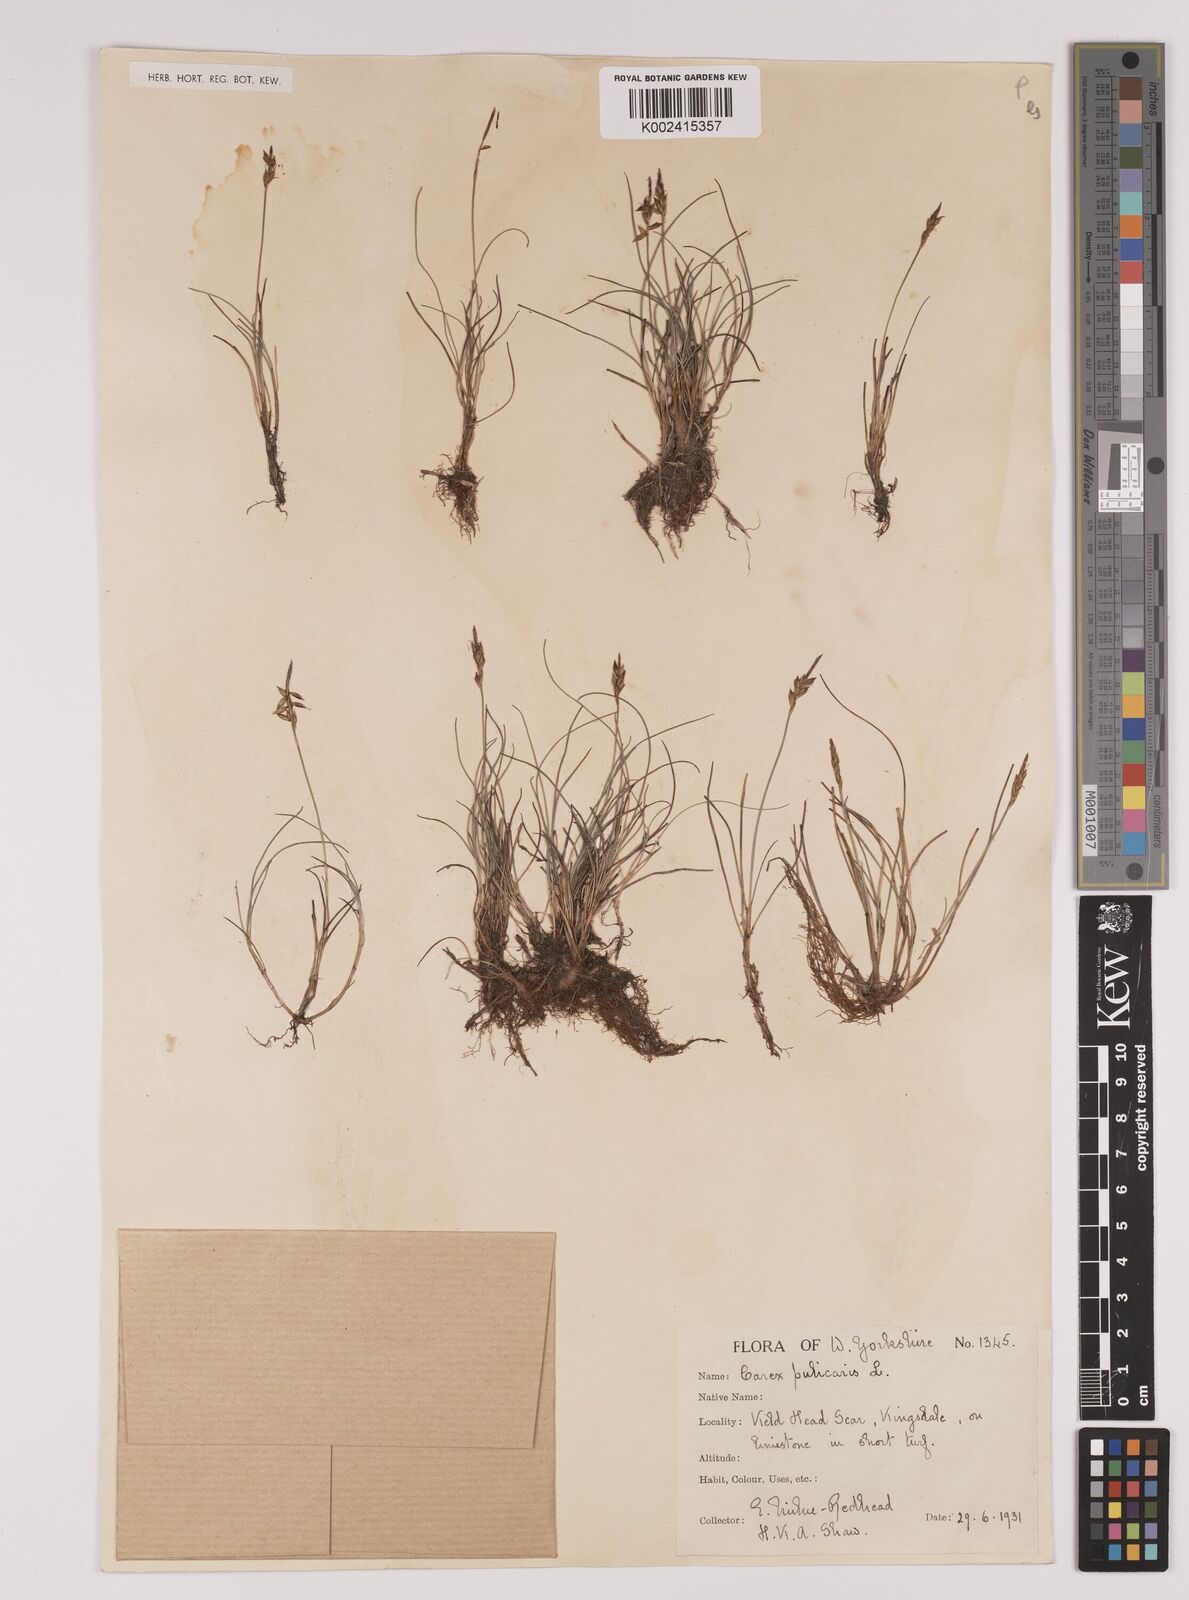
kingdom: Plantae
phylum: Tracheophyta
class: Liliopsida
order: Poales
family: Cyperaceae
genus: Carex
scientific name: Carex pulicaris
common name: Flea sedge
